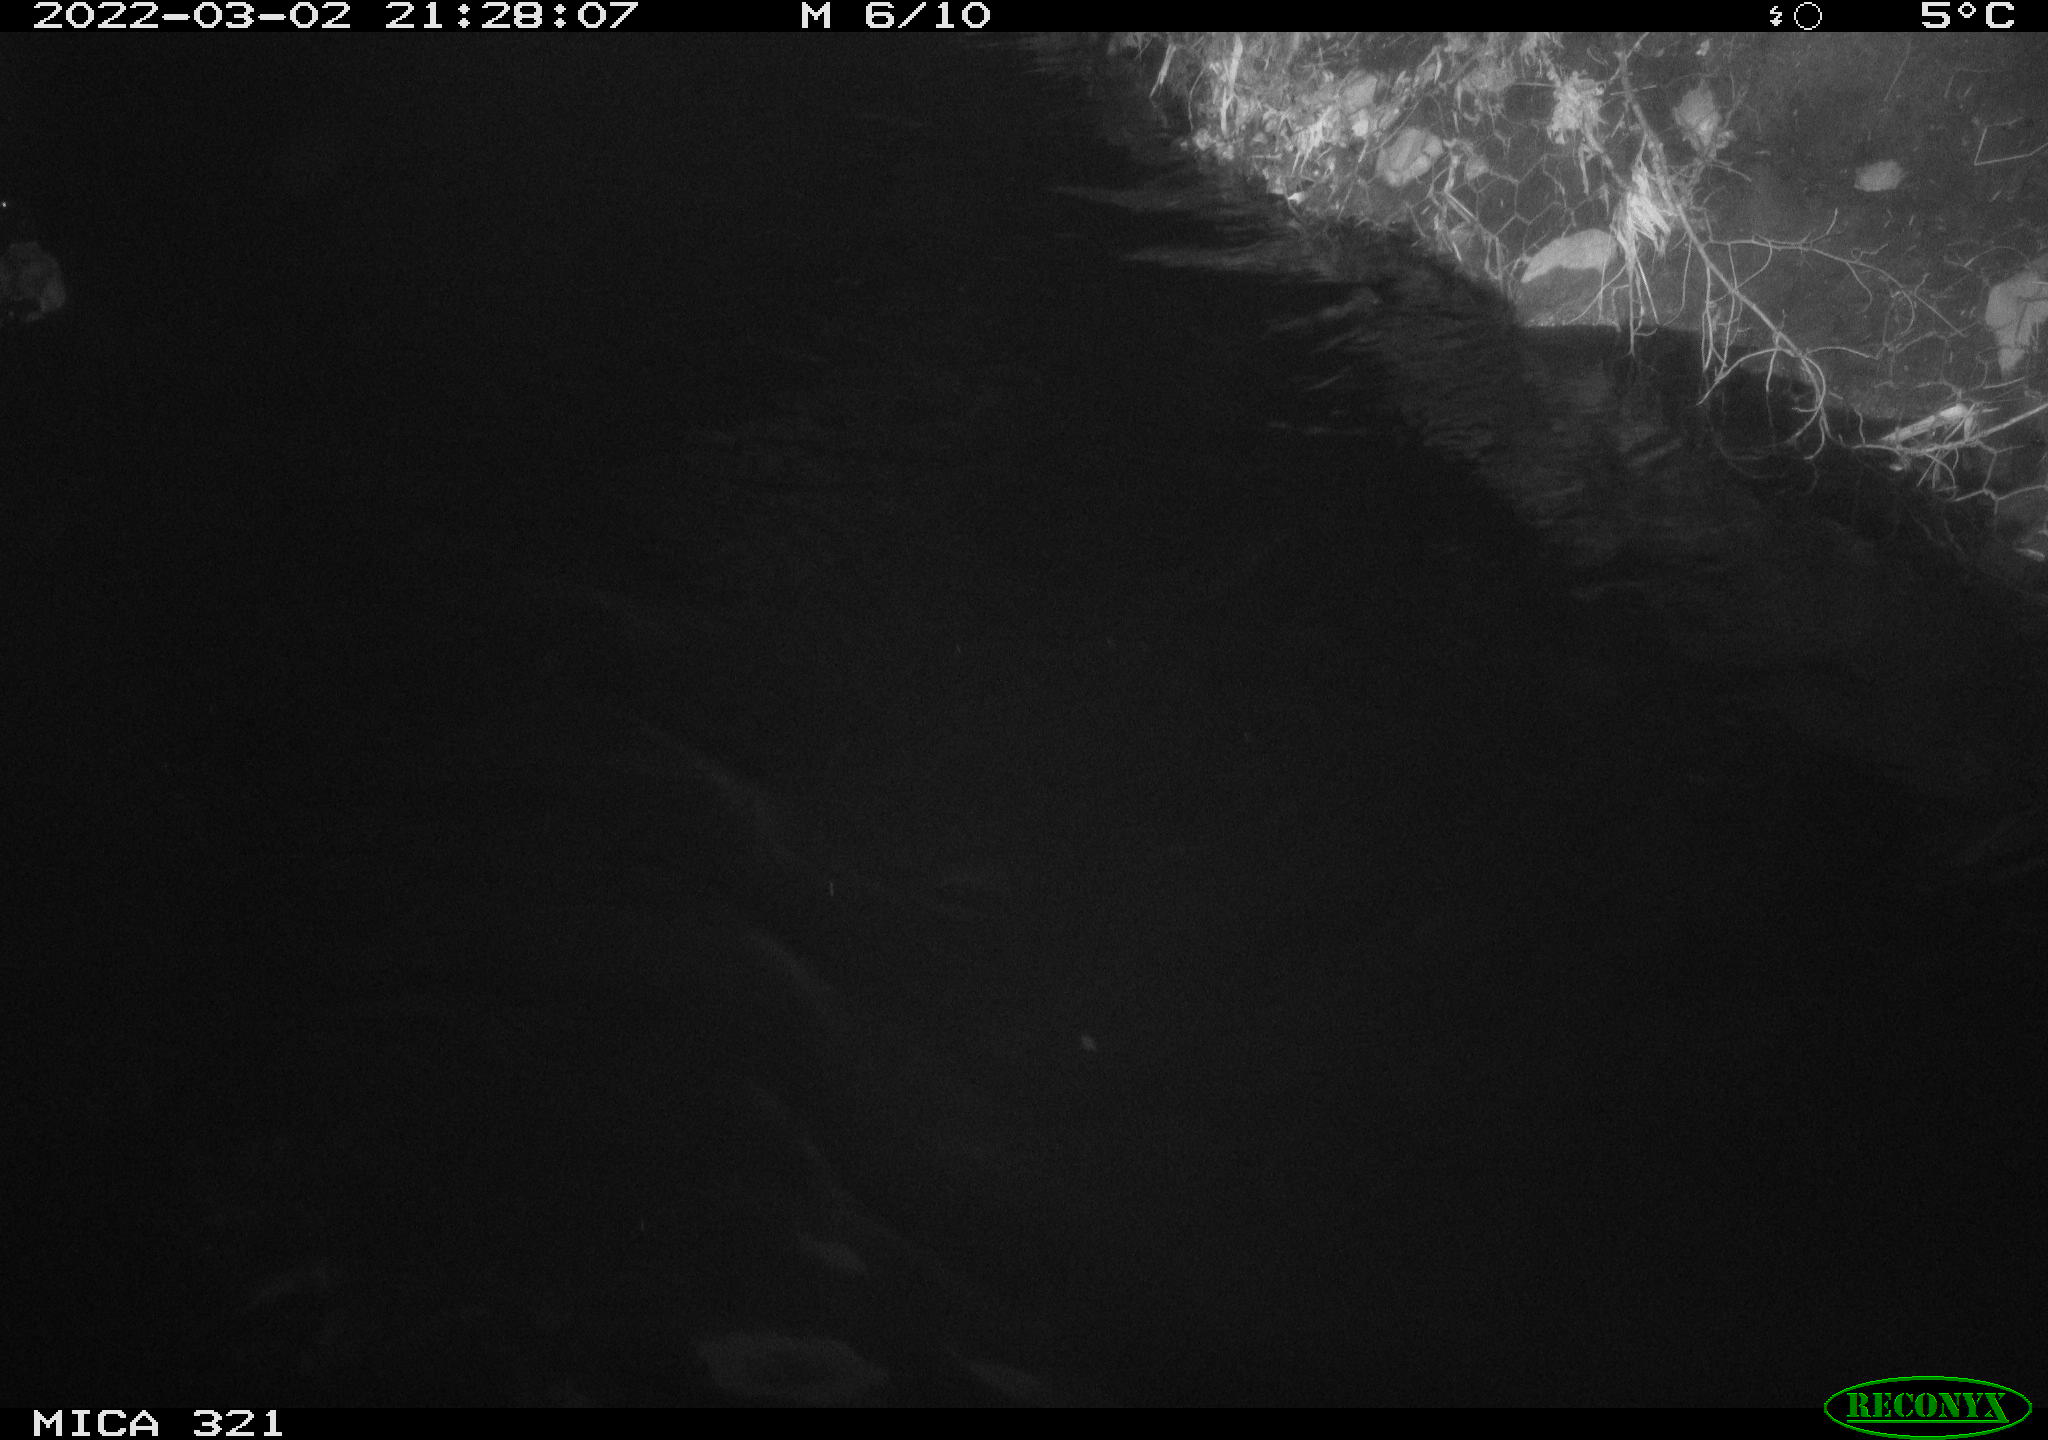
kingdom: Animalia
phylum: Chordata
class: Aves
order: Anseriformes
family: Anatidae
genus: Anas
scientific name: Anas platyrhynchos
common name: Mallard
